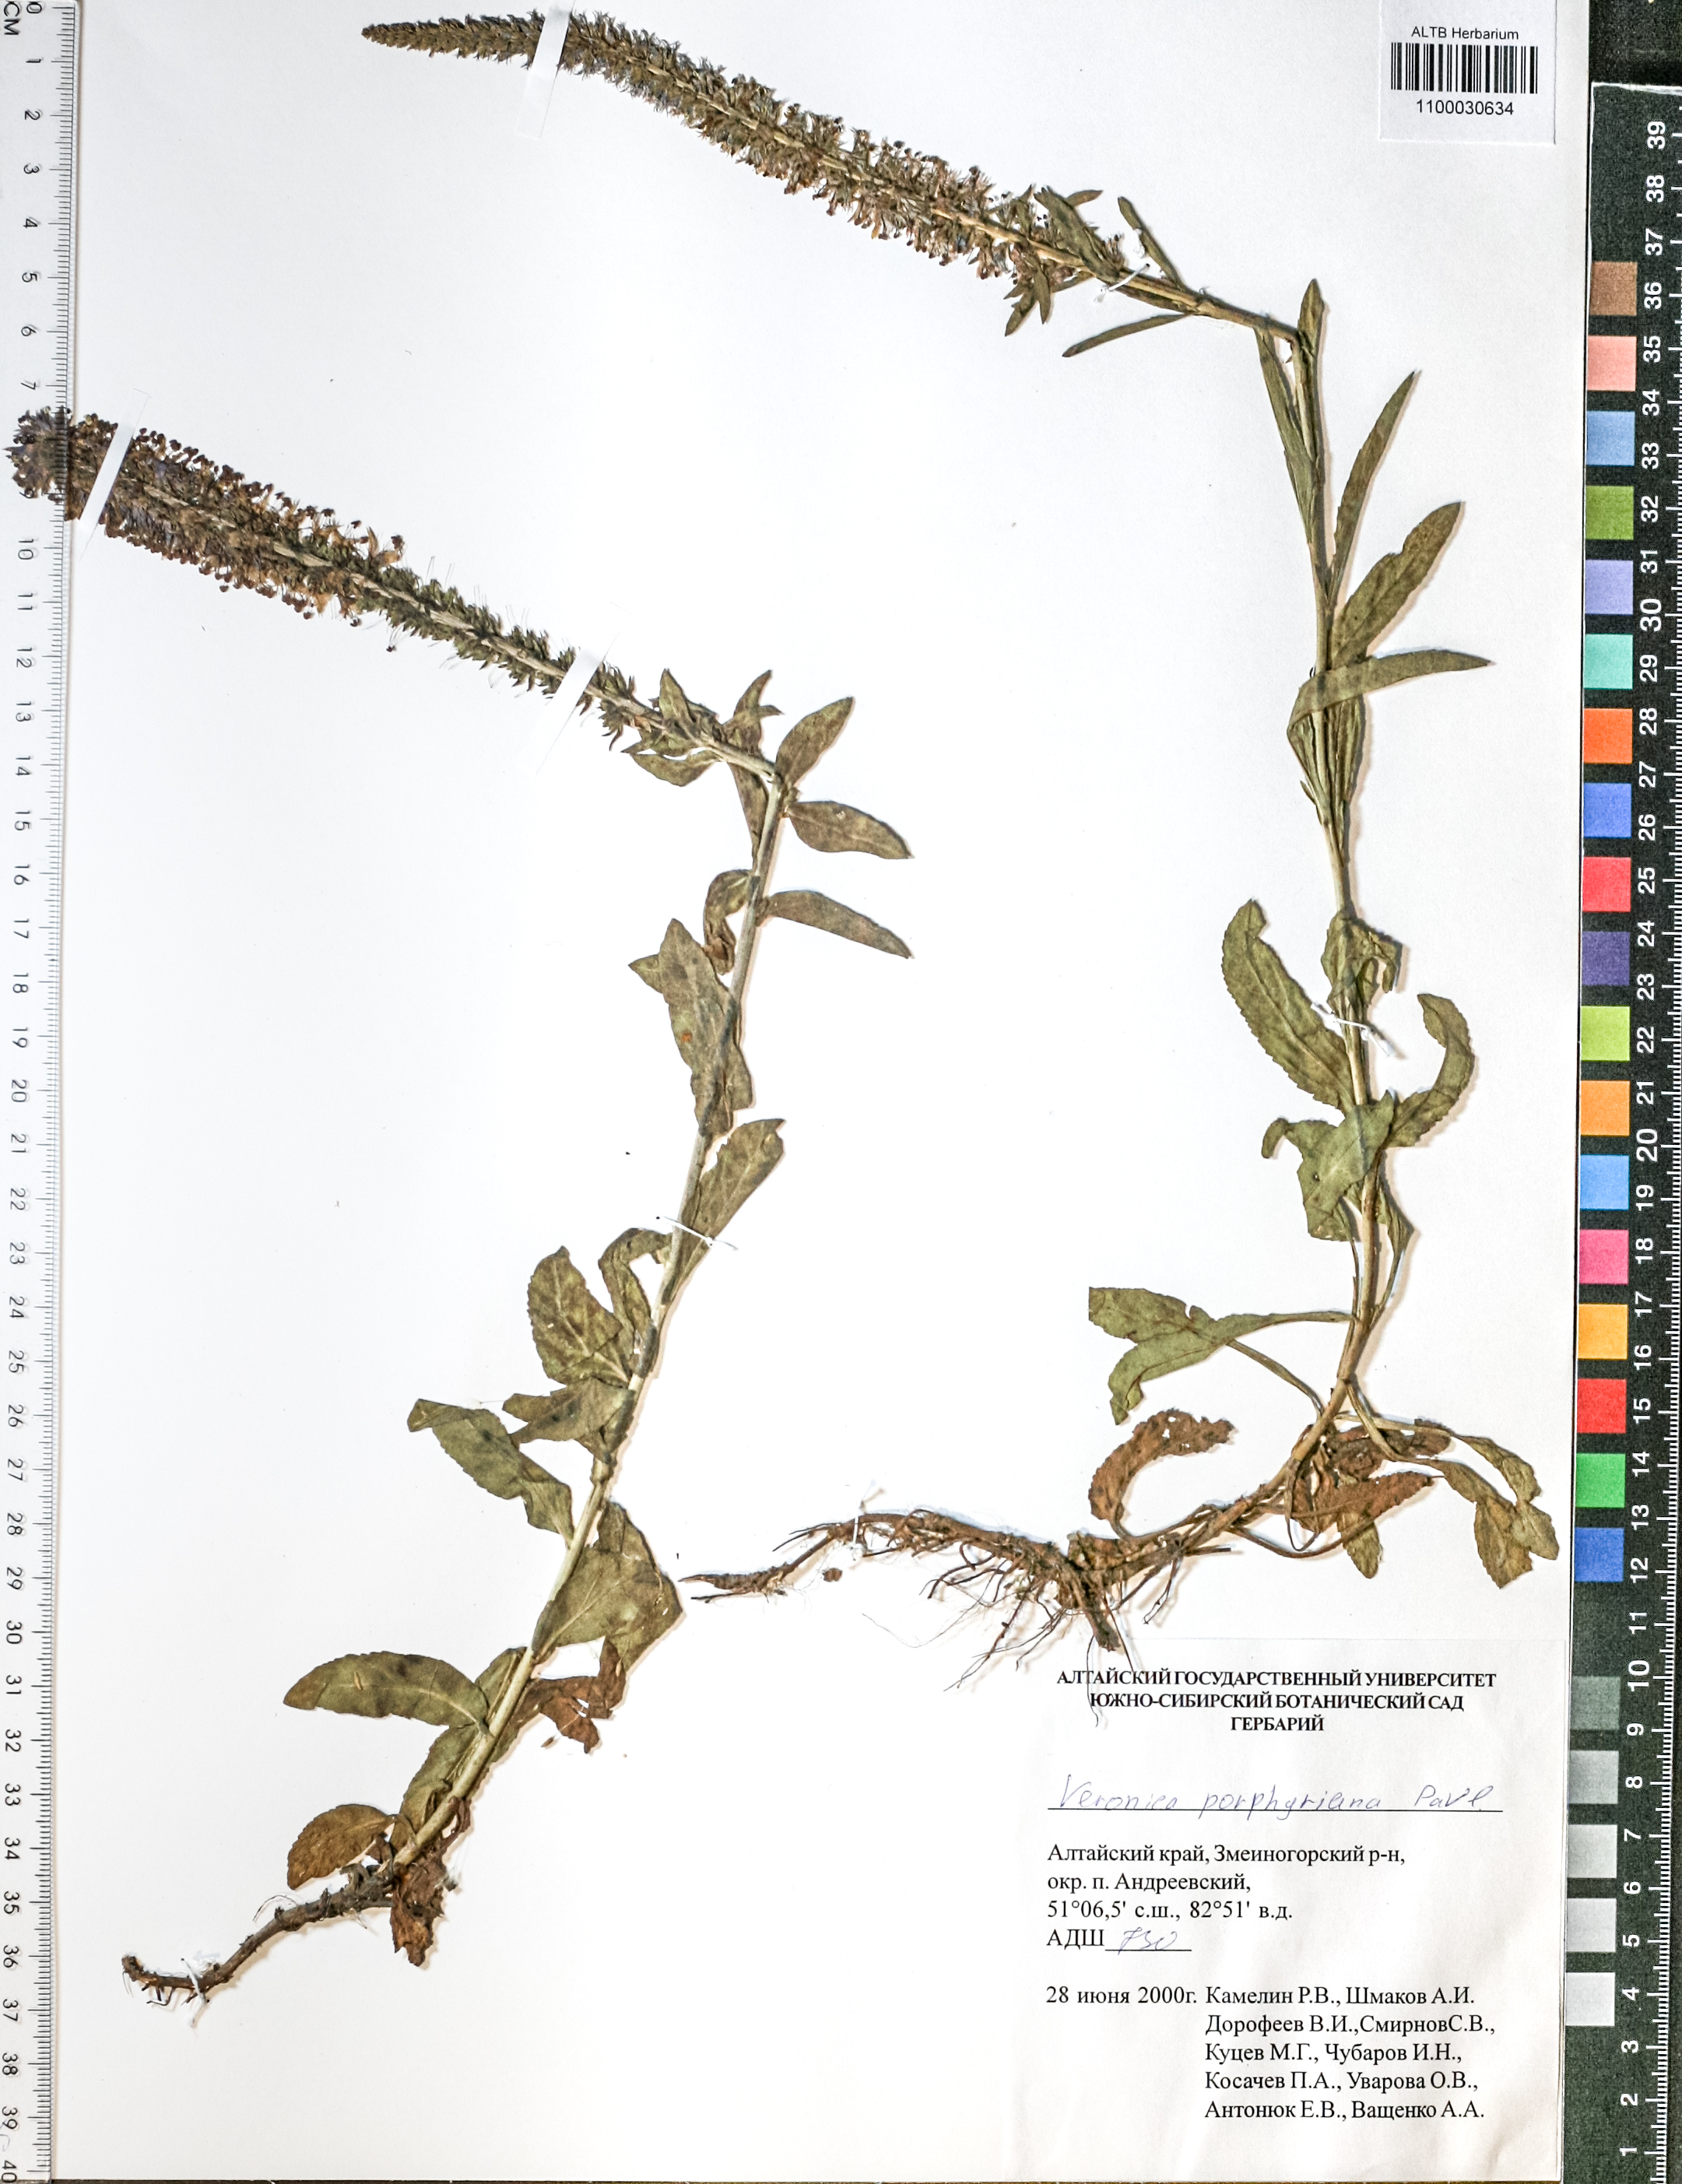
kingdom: Plantae
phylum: Tracheophyta
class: Magnoliopsida
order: Lamiales
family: Plantaginaceae
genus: Veronica
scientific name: Veronica porphyriana
